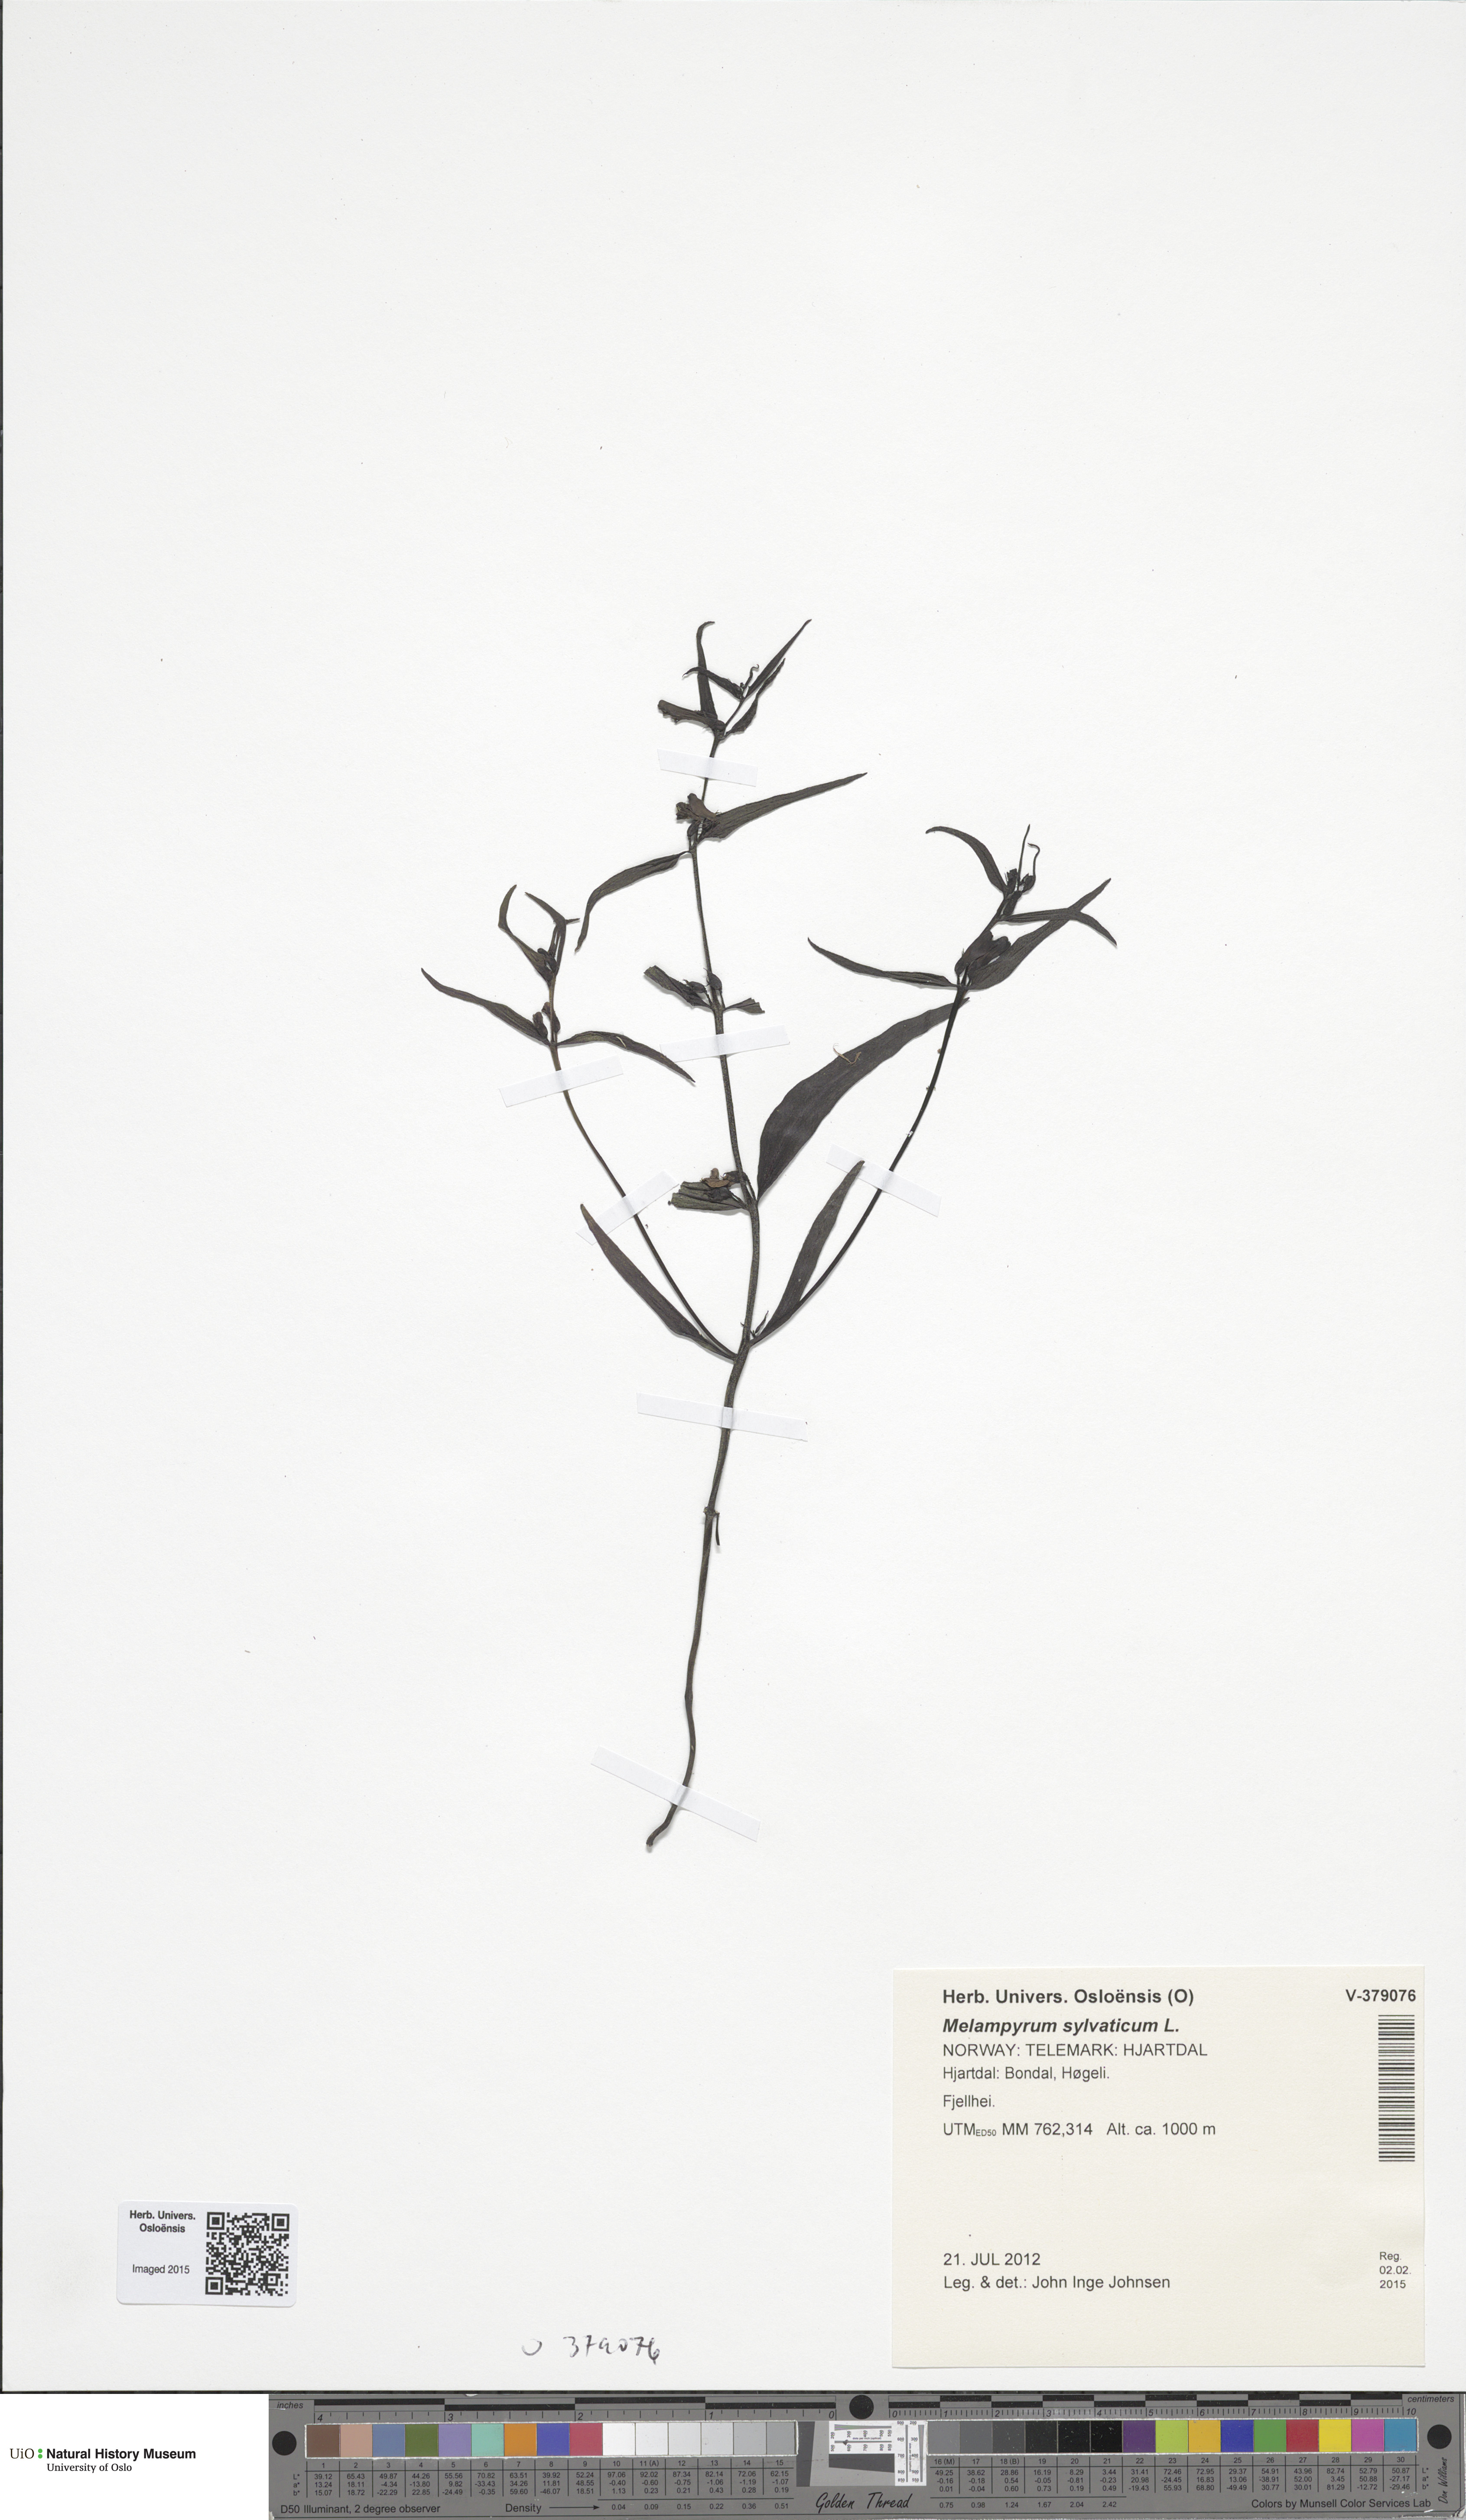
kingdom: Plantae
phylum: Tracheophyta
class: Magnoliopsida
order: Lamiales
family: Orobanchaceae
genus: Melampyrum
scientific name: Melampyrum sylvaticum
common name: Small cow-wheat
